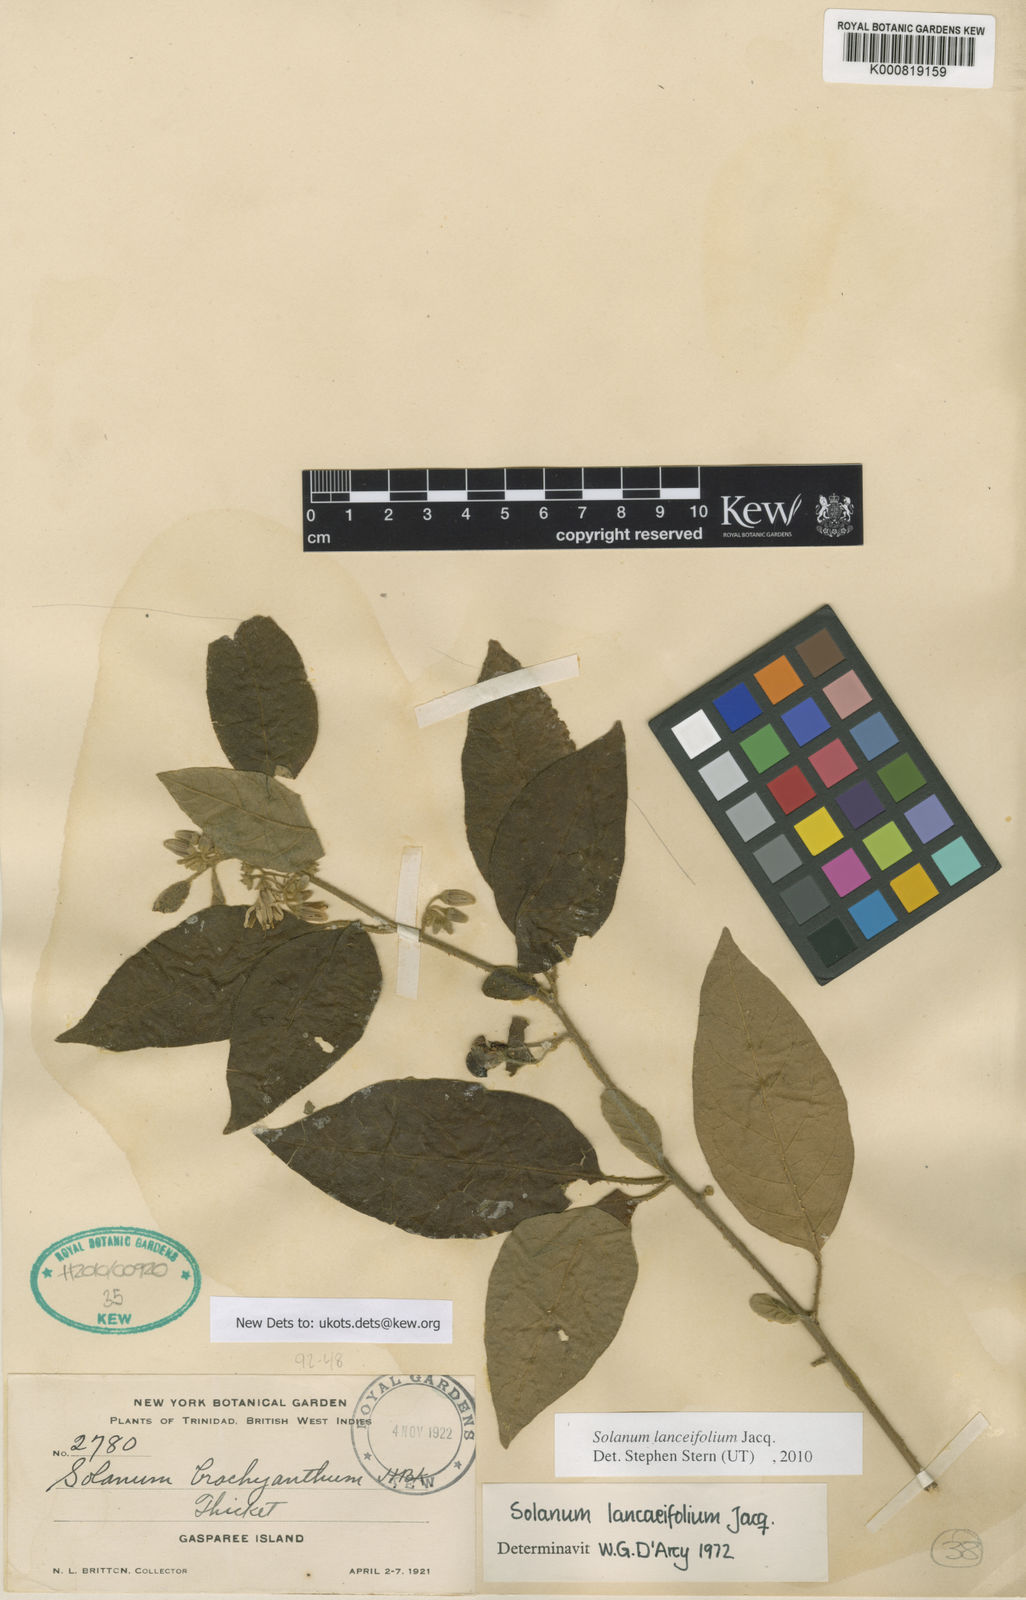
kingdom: Plantae
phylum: Tracheophyta
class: Magnoliopsida
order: Solanales
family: Solanaceae
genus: Solanum
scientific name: Solanum lanceifolium
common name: Lanceleaf nightshade
